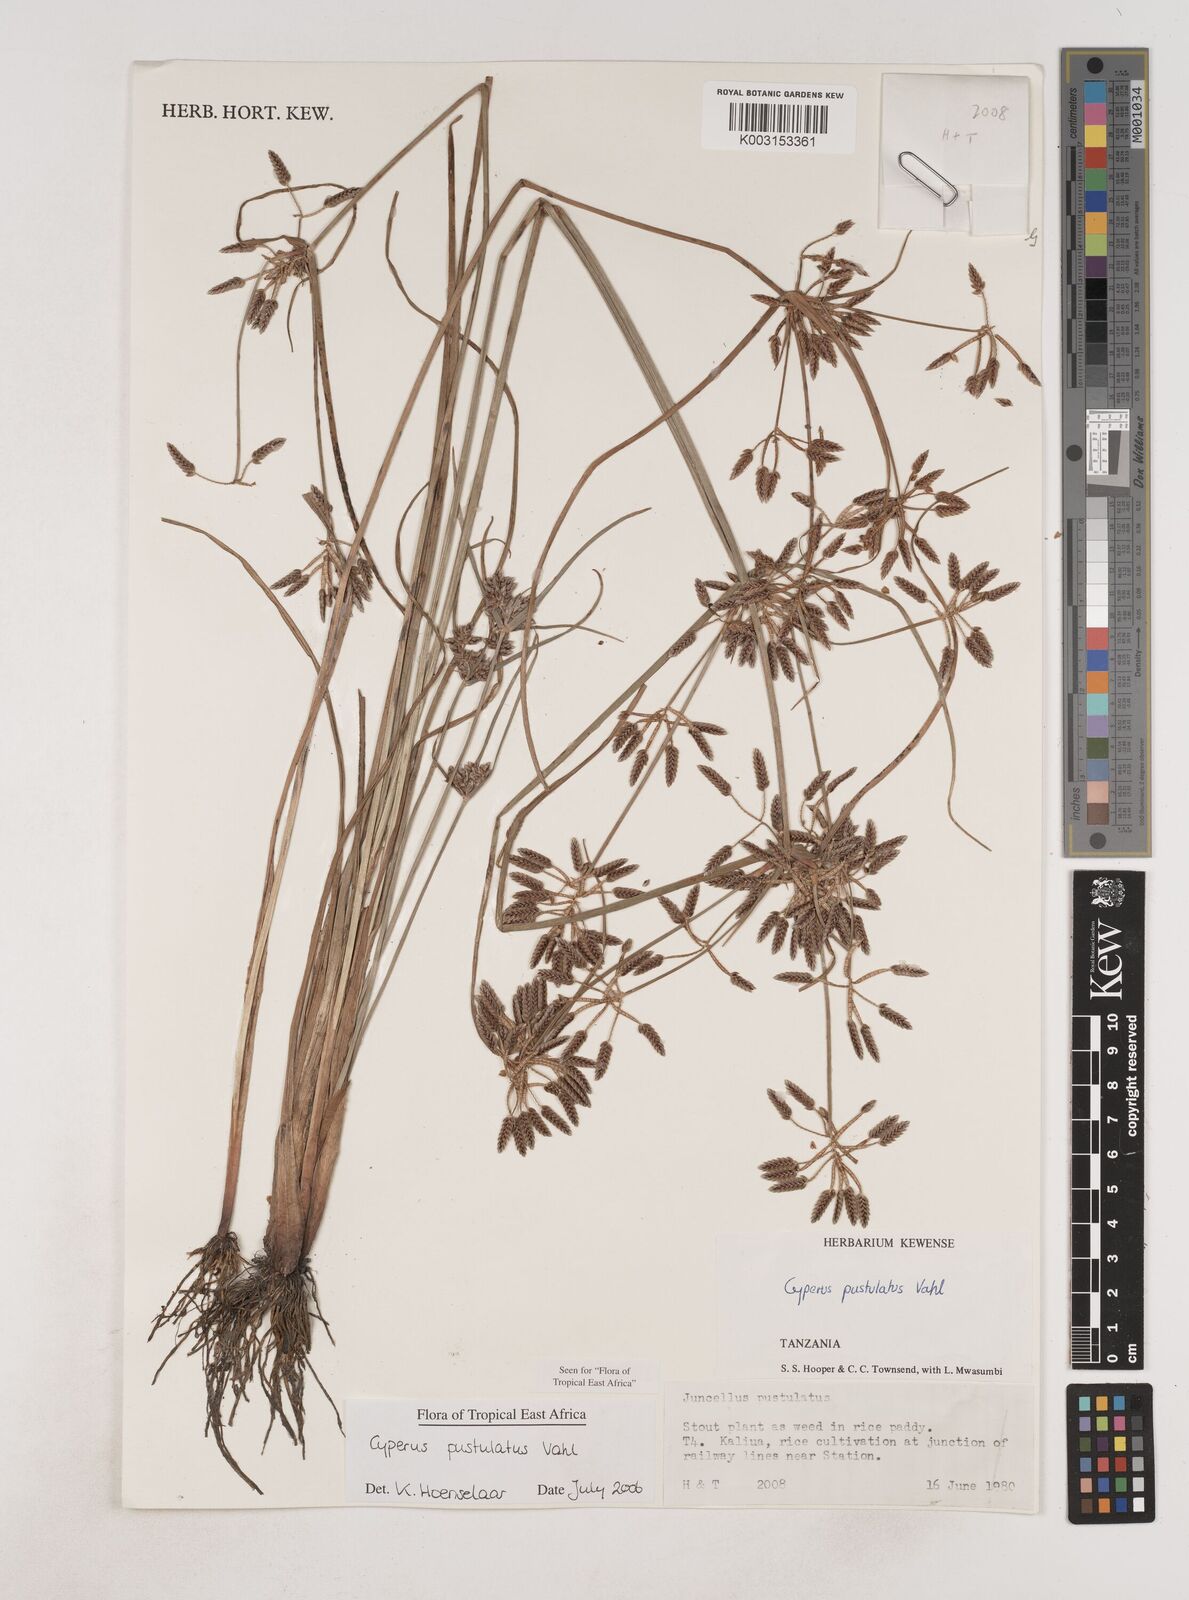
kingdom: Plantae
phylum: Tracheophyta
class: Liliopsida
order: Poales
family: Cyperaceae
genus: Cyperus
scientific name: Cyperus pustulatus
